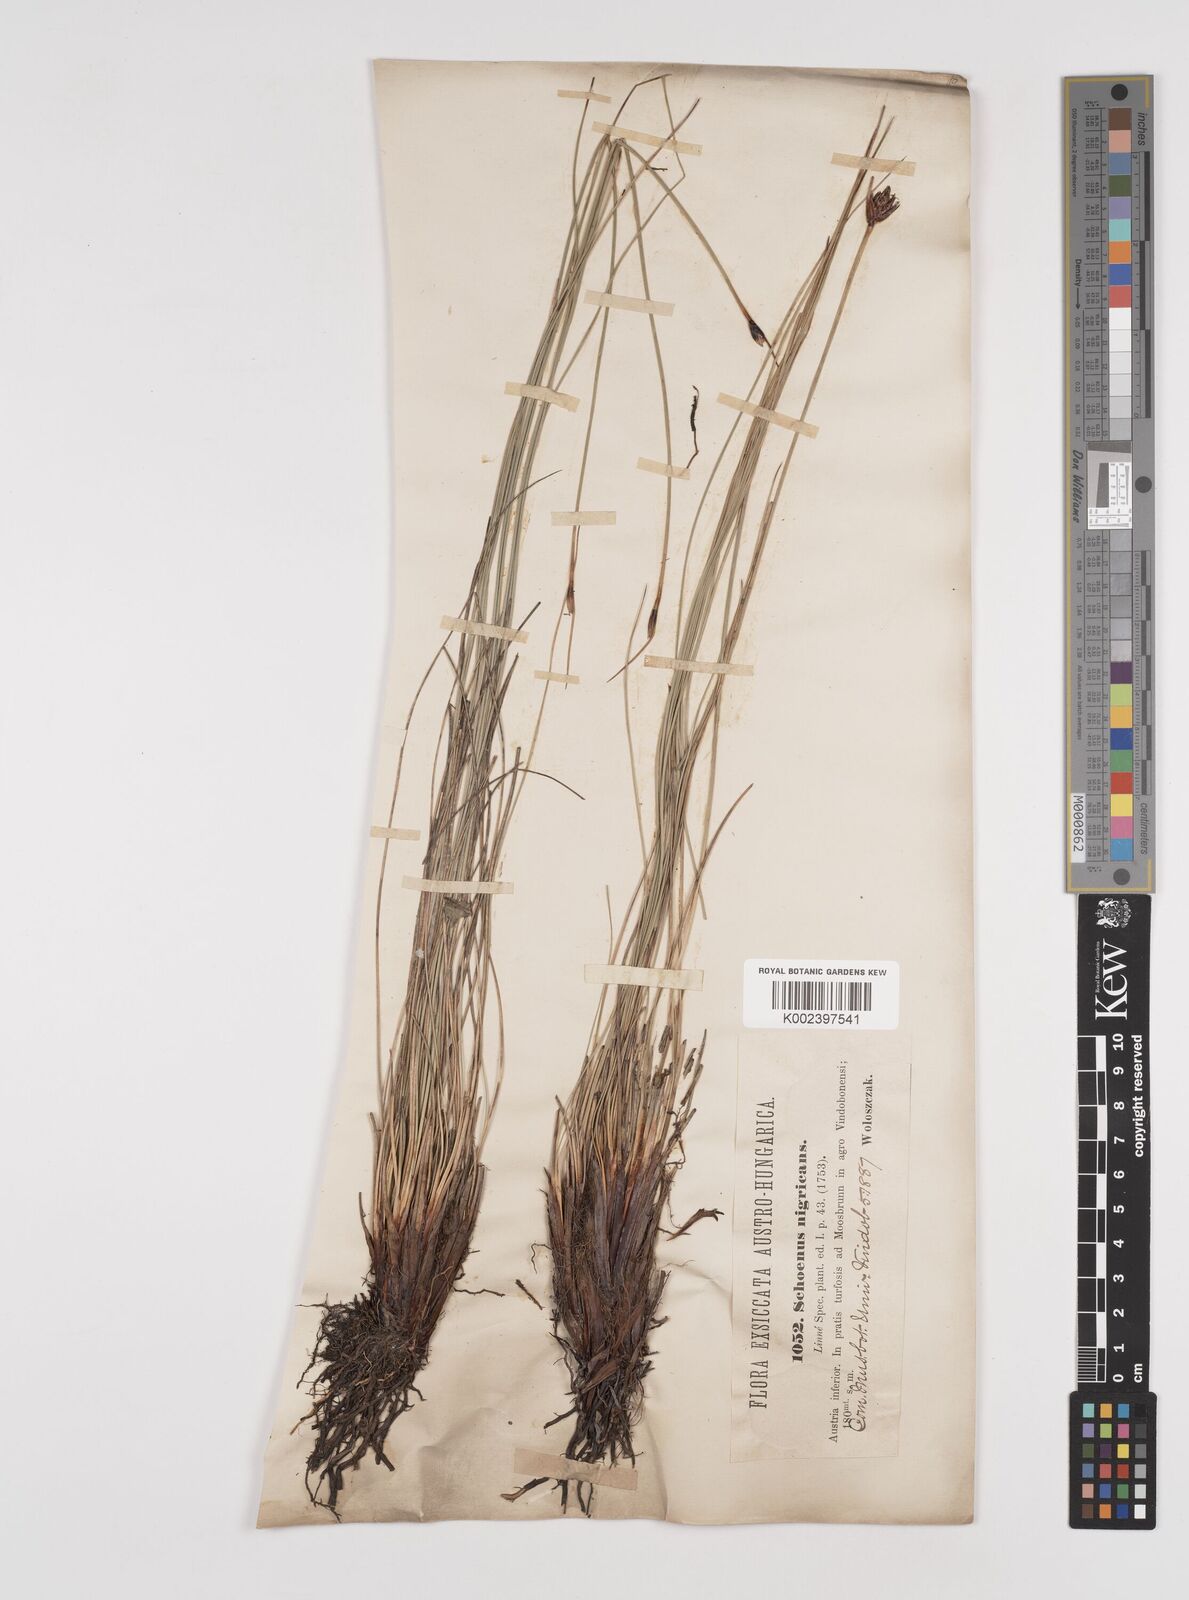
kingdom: Plantae
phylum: Tracheophyta
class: Liliopsida
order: Poales
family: Cyperaceae
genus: Schoenus
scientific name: Schoenus nigricans
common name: Black bog-rush
